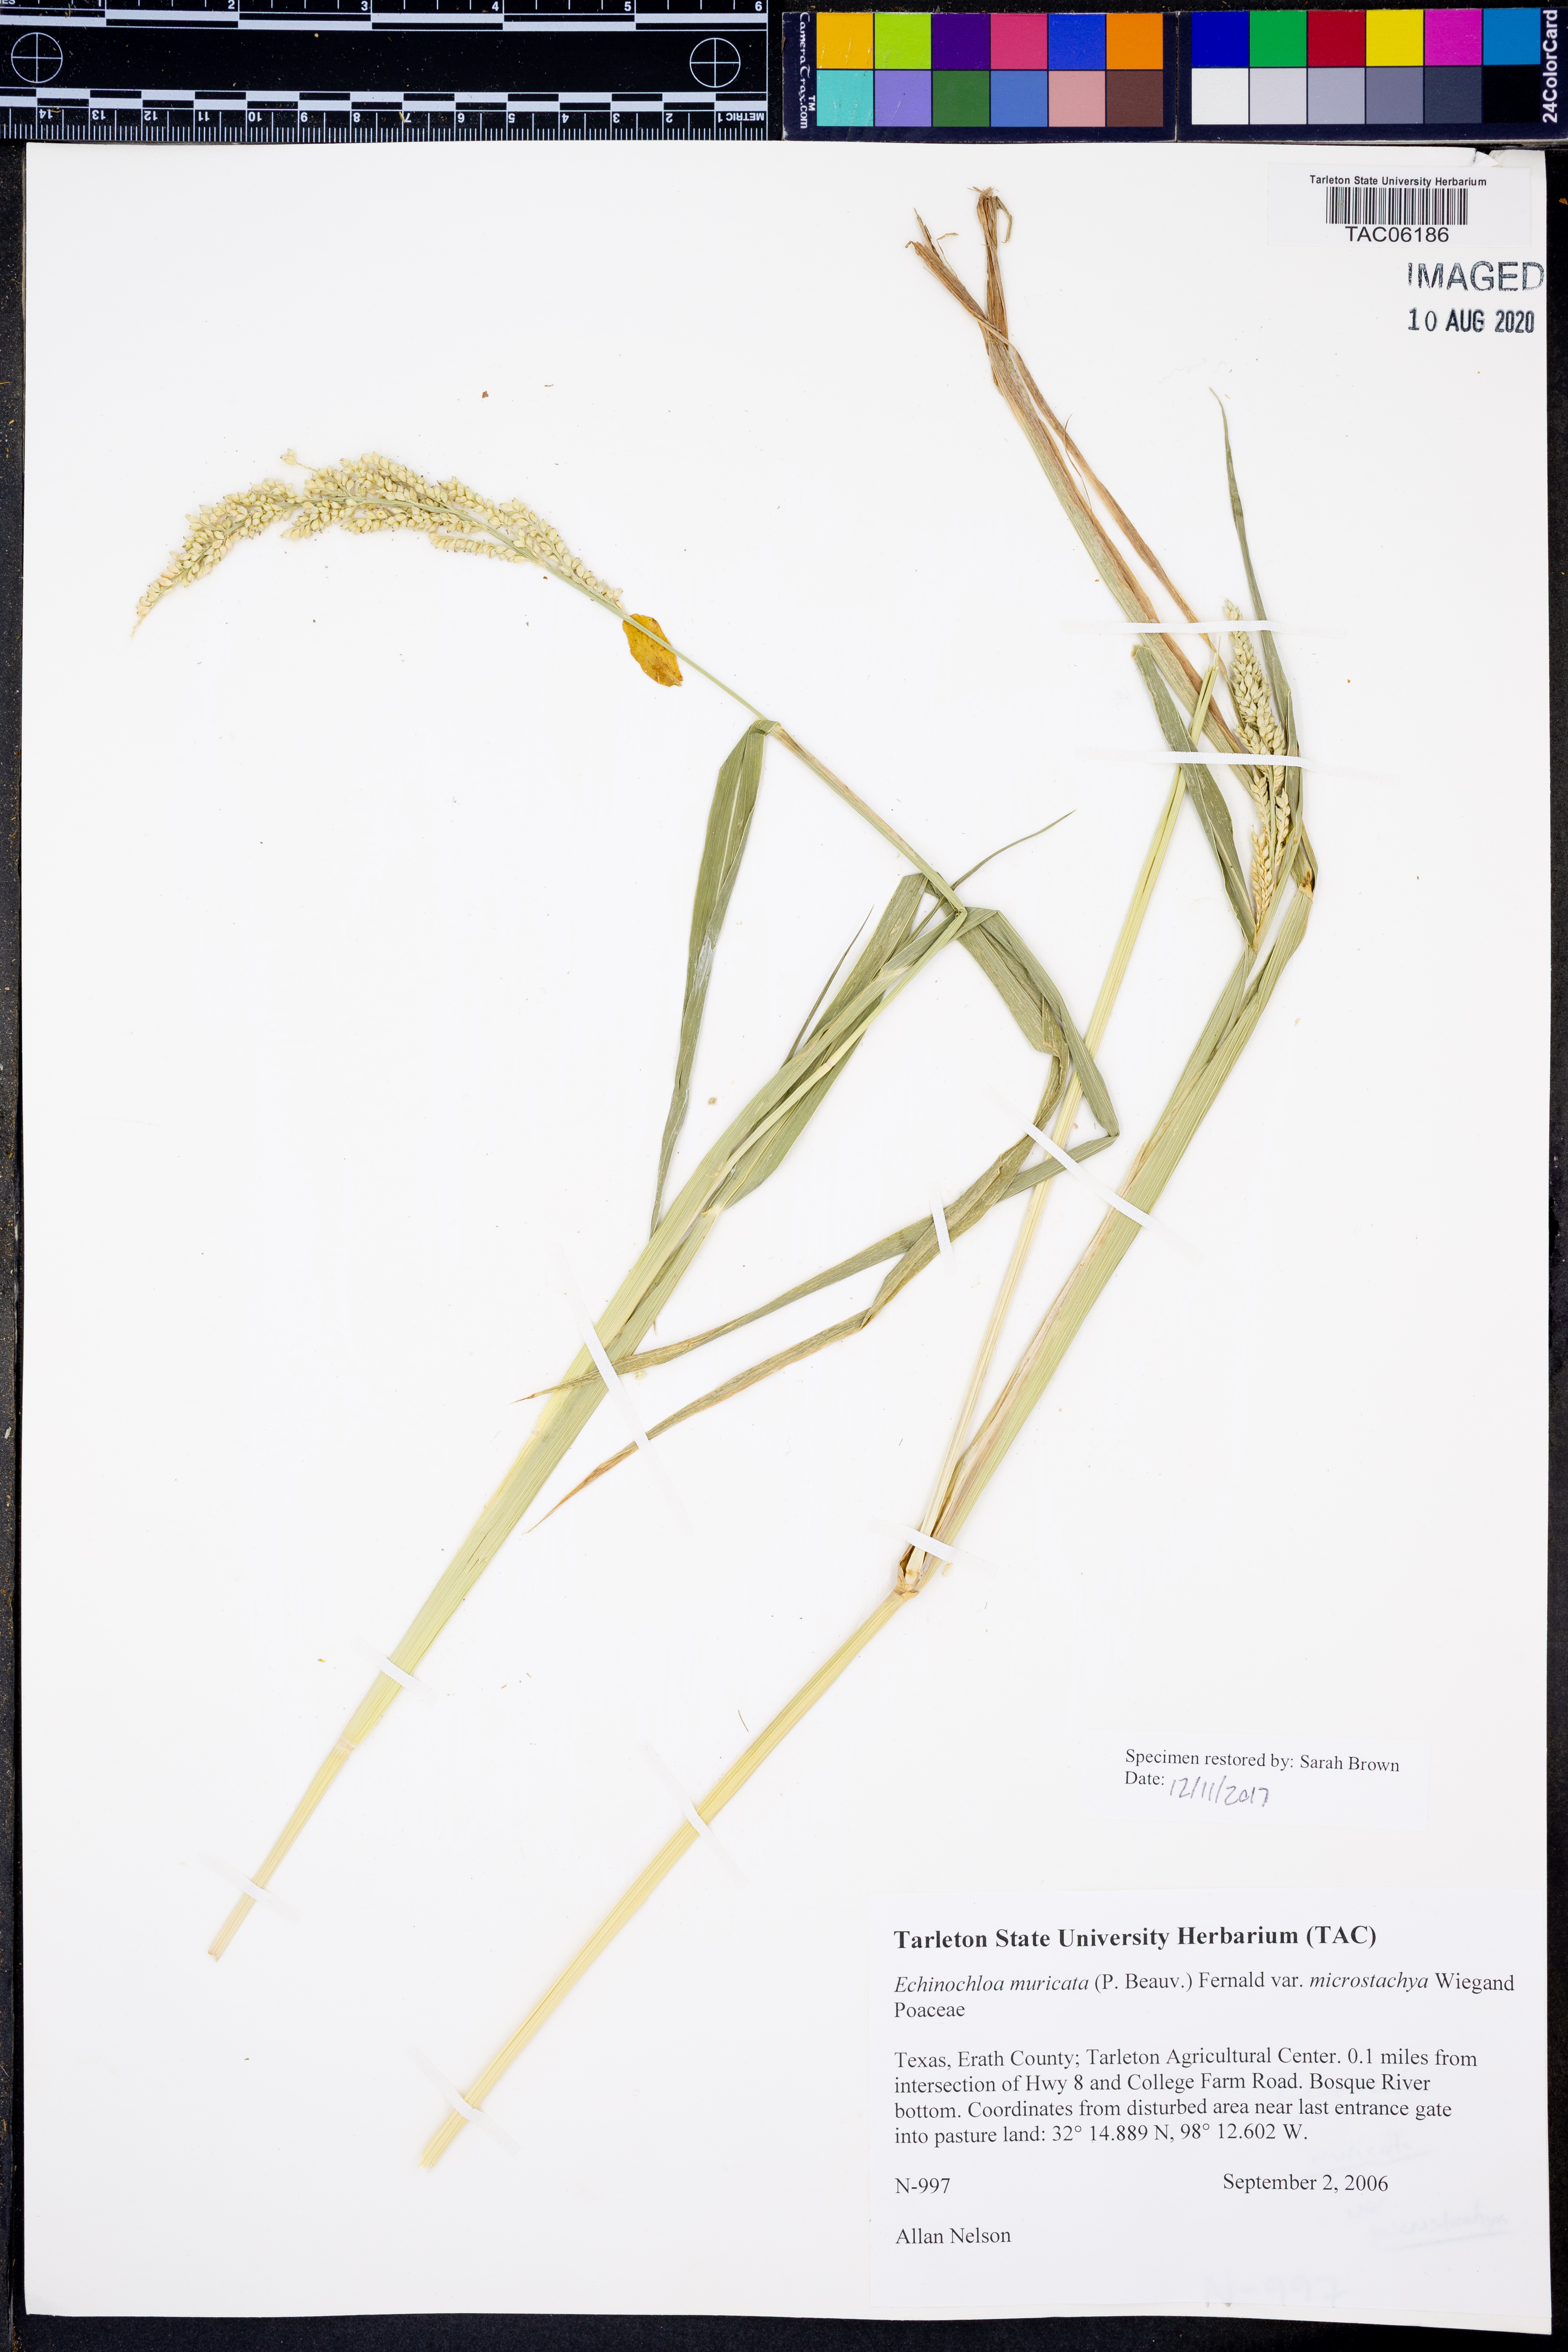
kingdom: Plantae
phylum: Tracheophyta
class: Liliopsida
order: Poales
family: Poaceae
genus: Echinochloa
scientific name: Echinochloa muricata
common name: American barnyard grass
